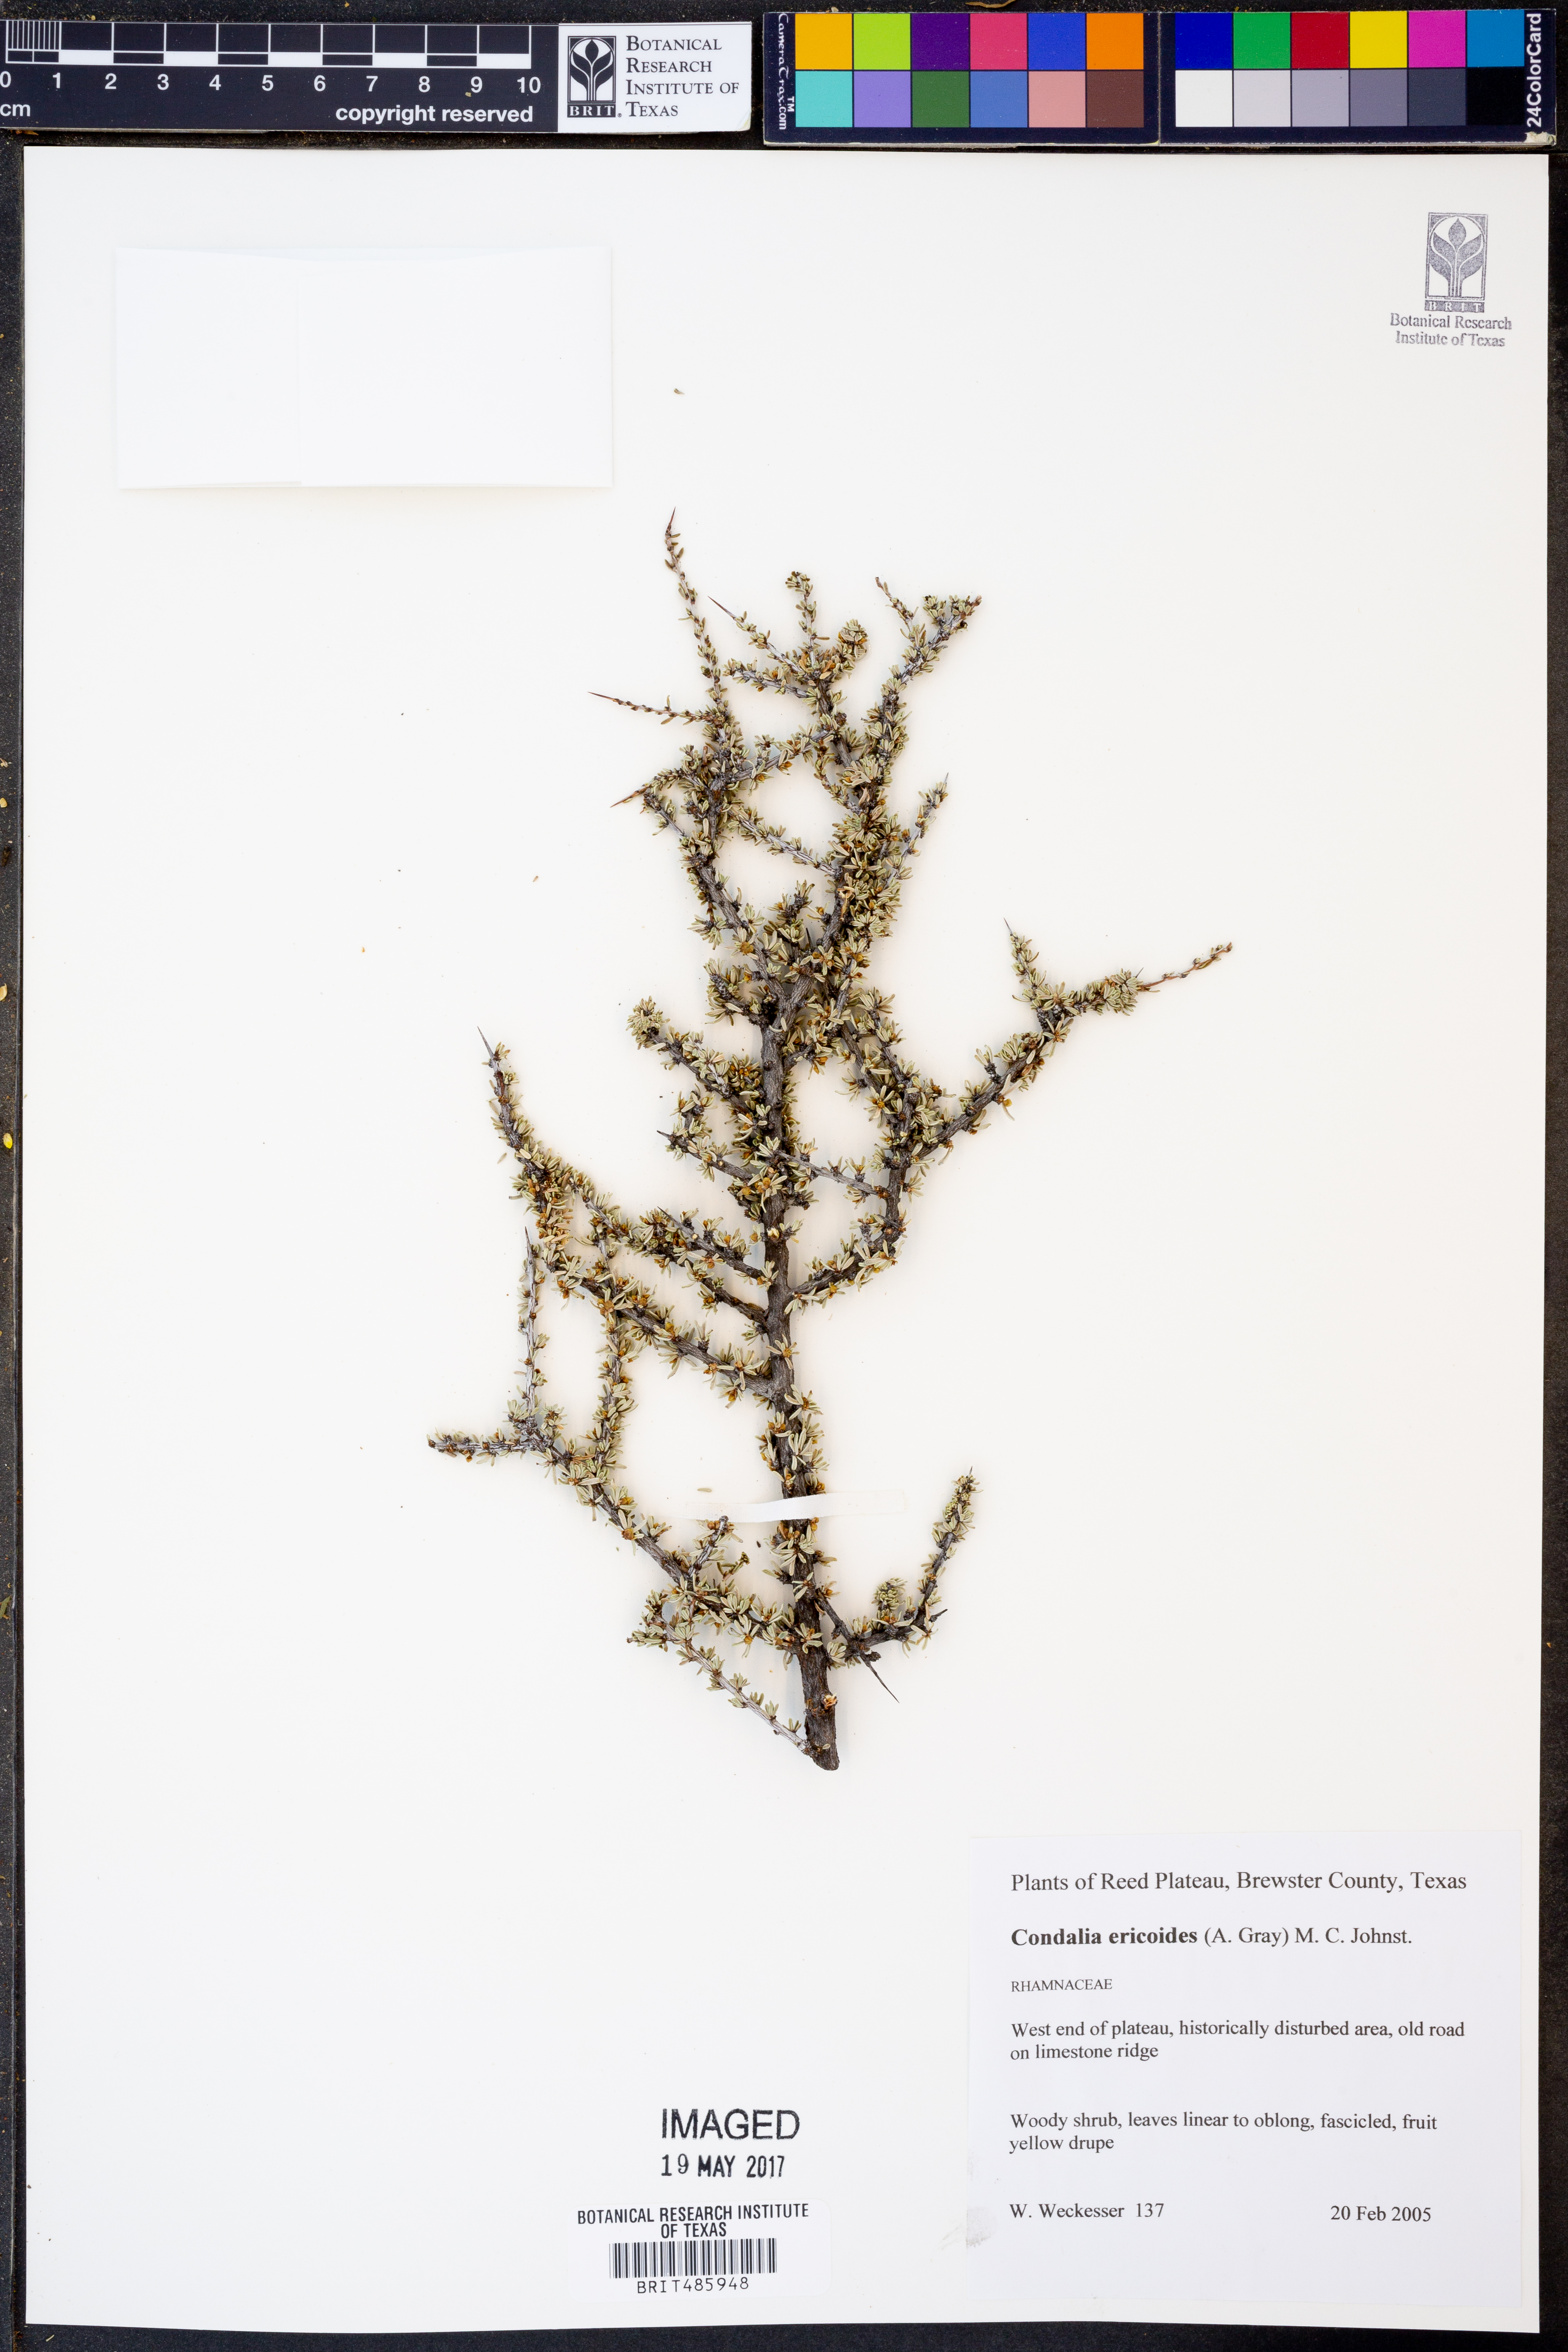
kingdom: Plantae
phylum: Tracheophyta
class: Magnoliopsida
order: Rosales
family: Rhamnaceae
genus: Condalia
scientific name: Condalia ericoides
